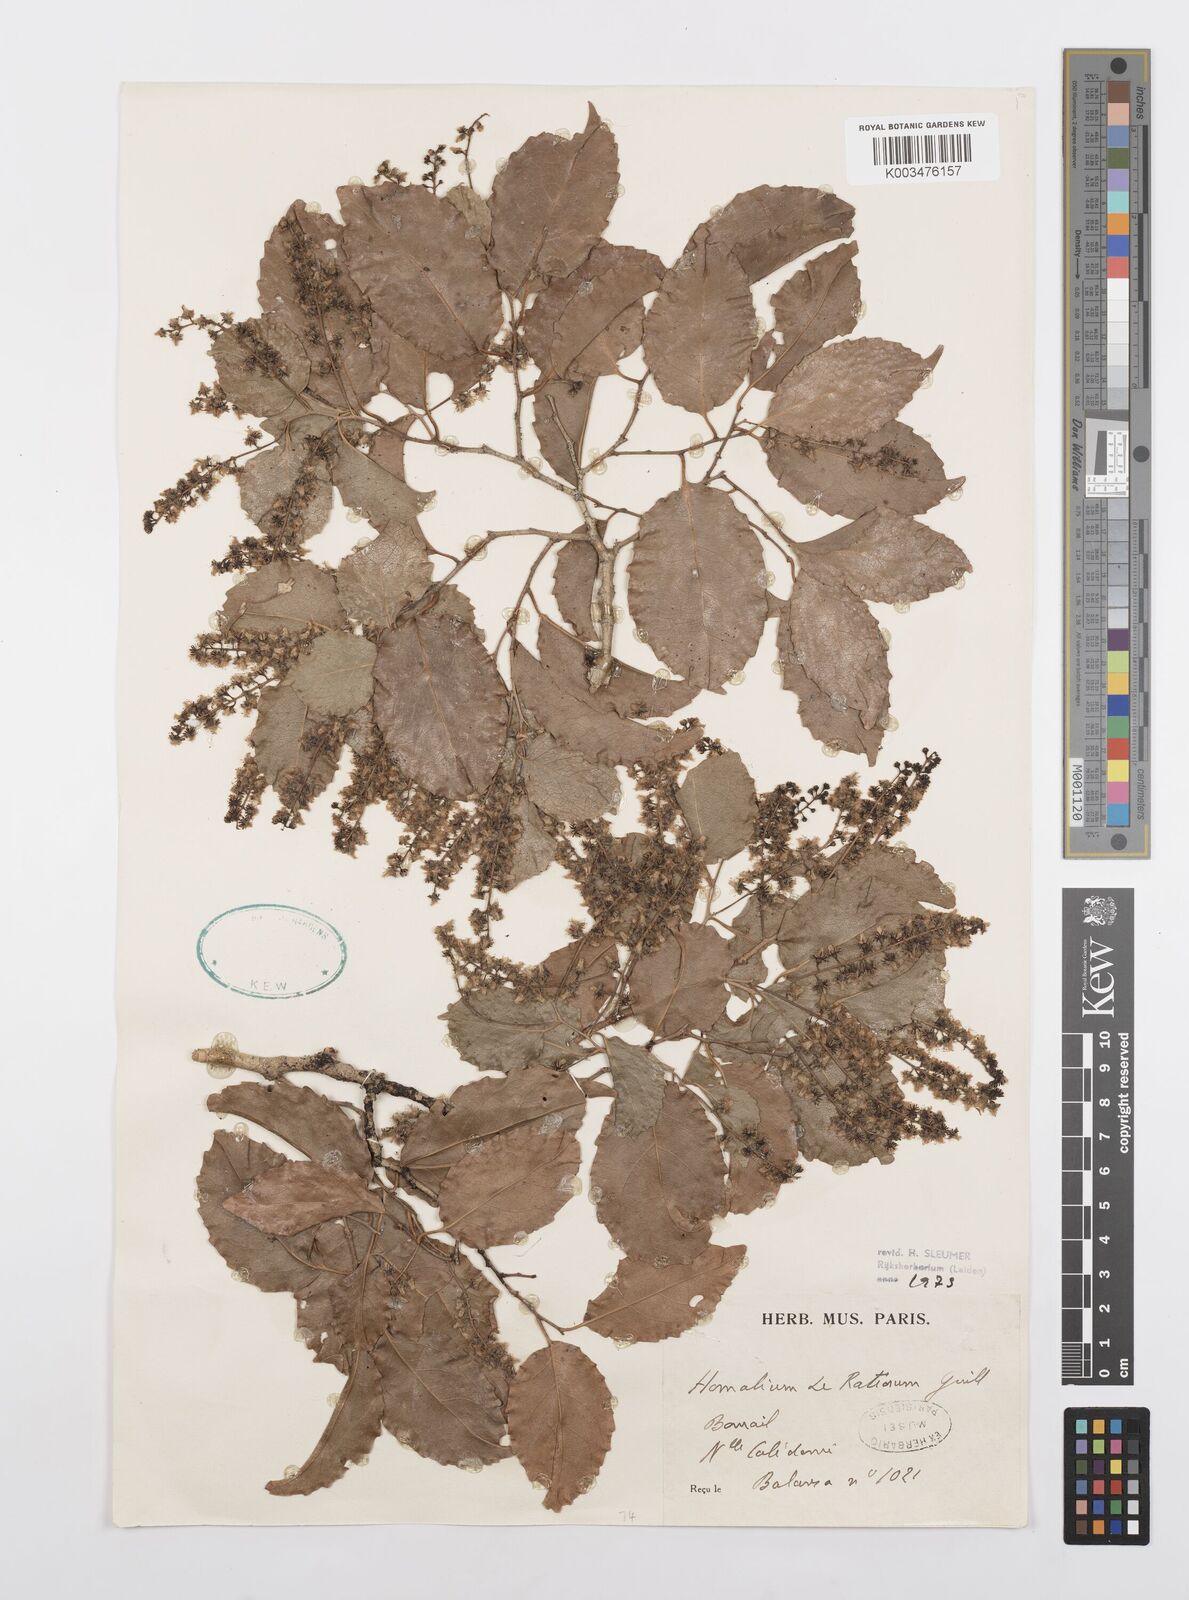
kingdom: Plantae
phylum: Tracheophyta
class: Magnoliopsida
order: Malpighiales
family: Salicaceae
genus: Homalium
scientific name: Homalium
